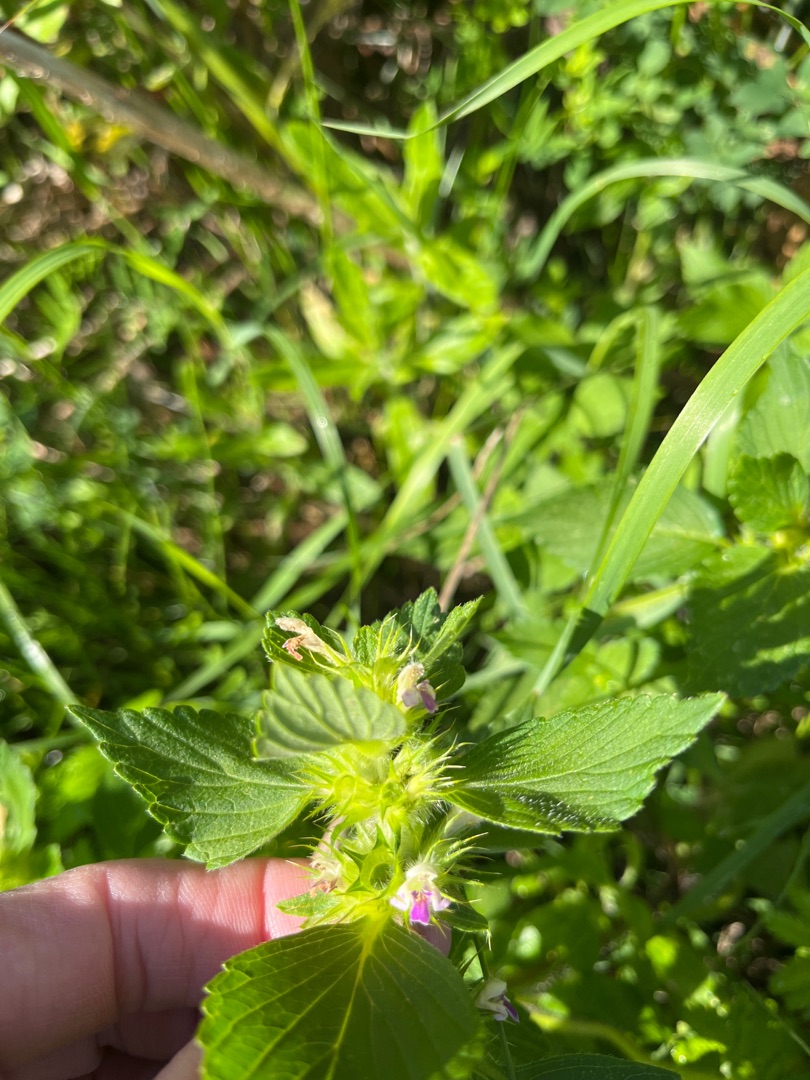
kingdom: Plantae
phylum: Tracheophyta
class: Magnoliopsida
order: Lamiales
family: Lamiaceae
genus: Galeopsis
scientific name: Galeopsis bifida
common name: Skov-hanekro
